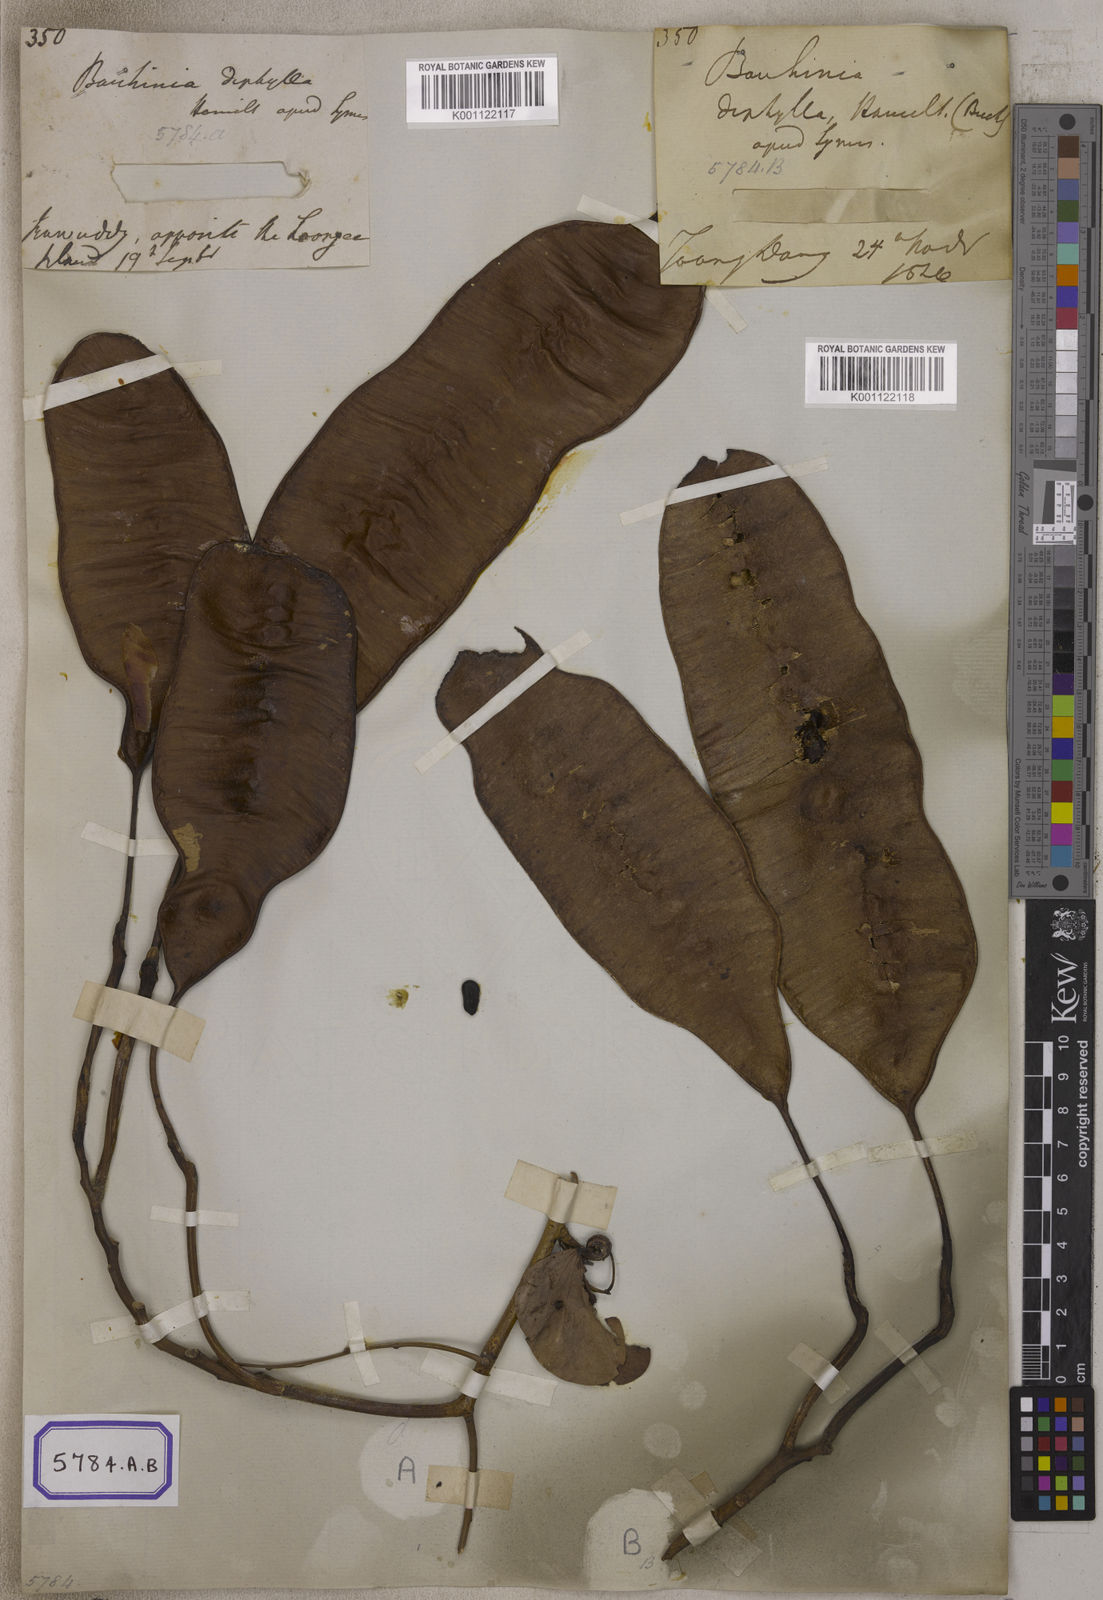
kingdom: Plantae
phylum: Tracheophyta
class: Magnoliopsida
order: Fabales
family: Fabaceae
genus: Bauhinia
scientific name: Bauhinia
